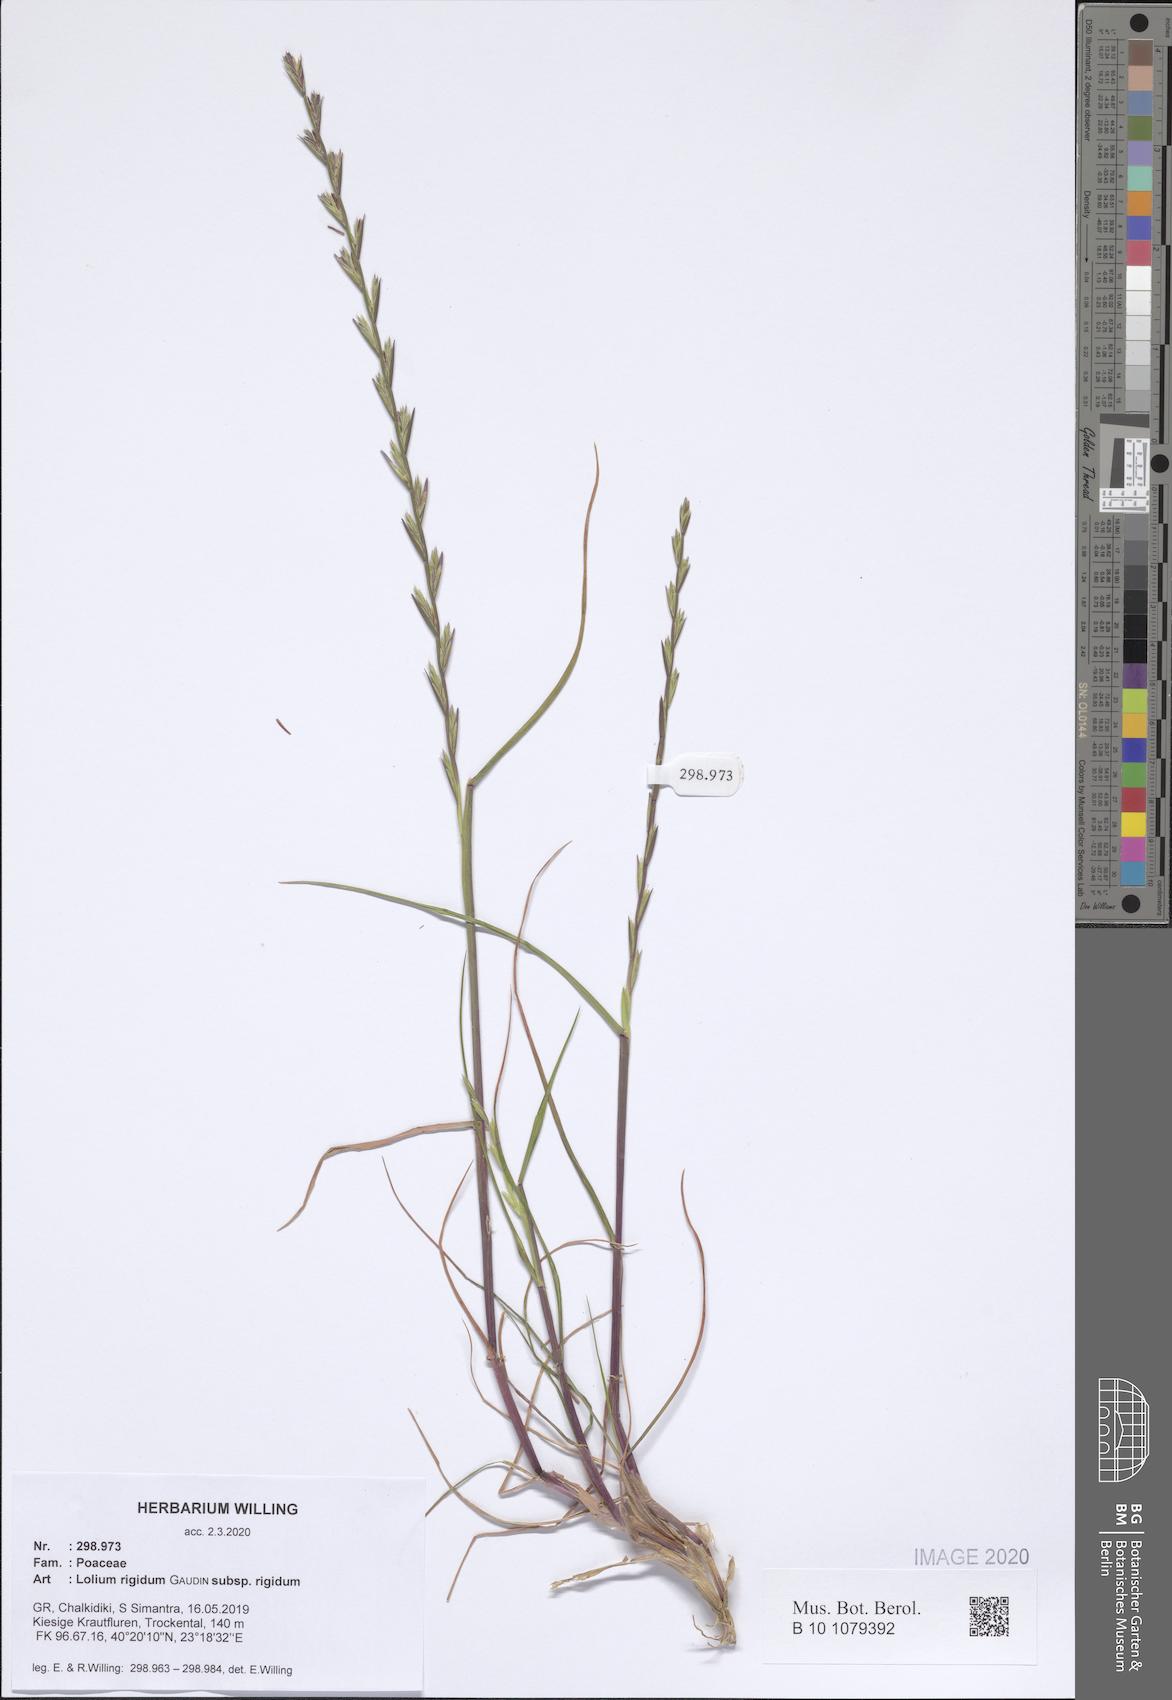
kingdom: Plantae
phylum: Tracheophyta
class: Liliopsida
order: Poales
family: Poaceae
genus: Lolium
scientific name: Lolium rigidum
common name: Wimmera ryegrass
